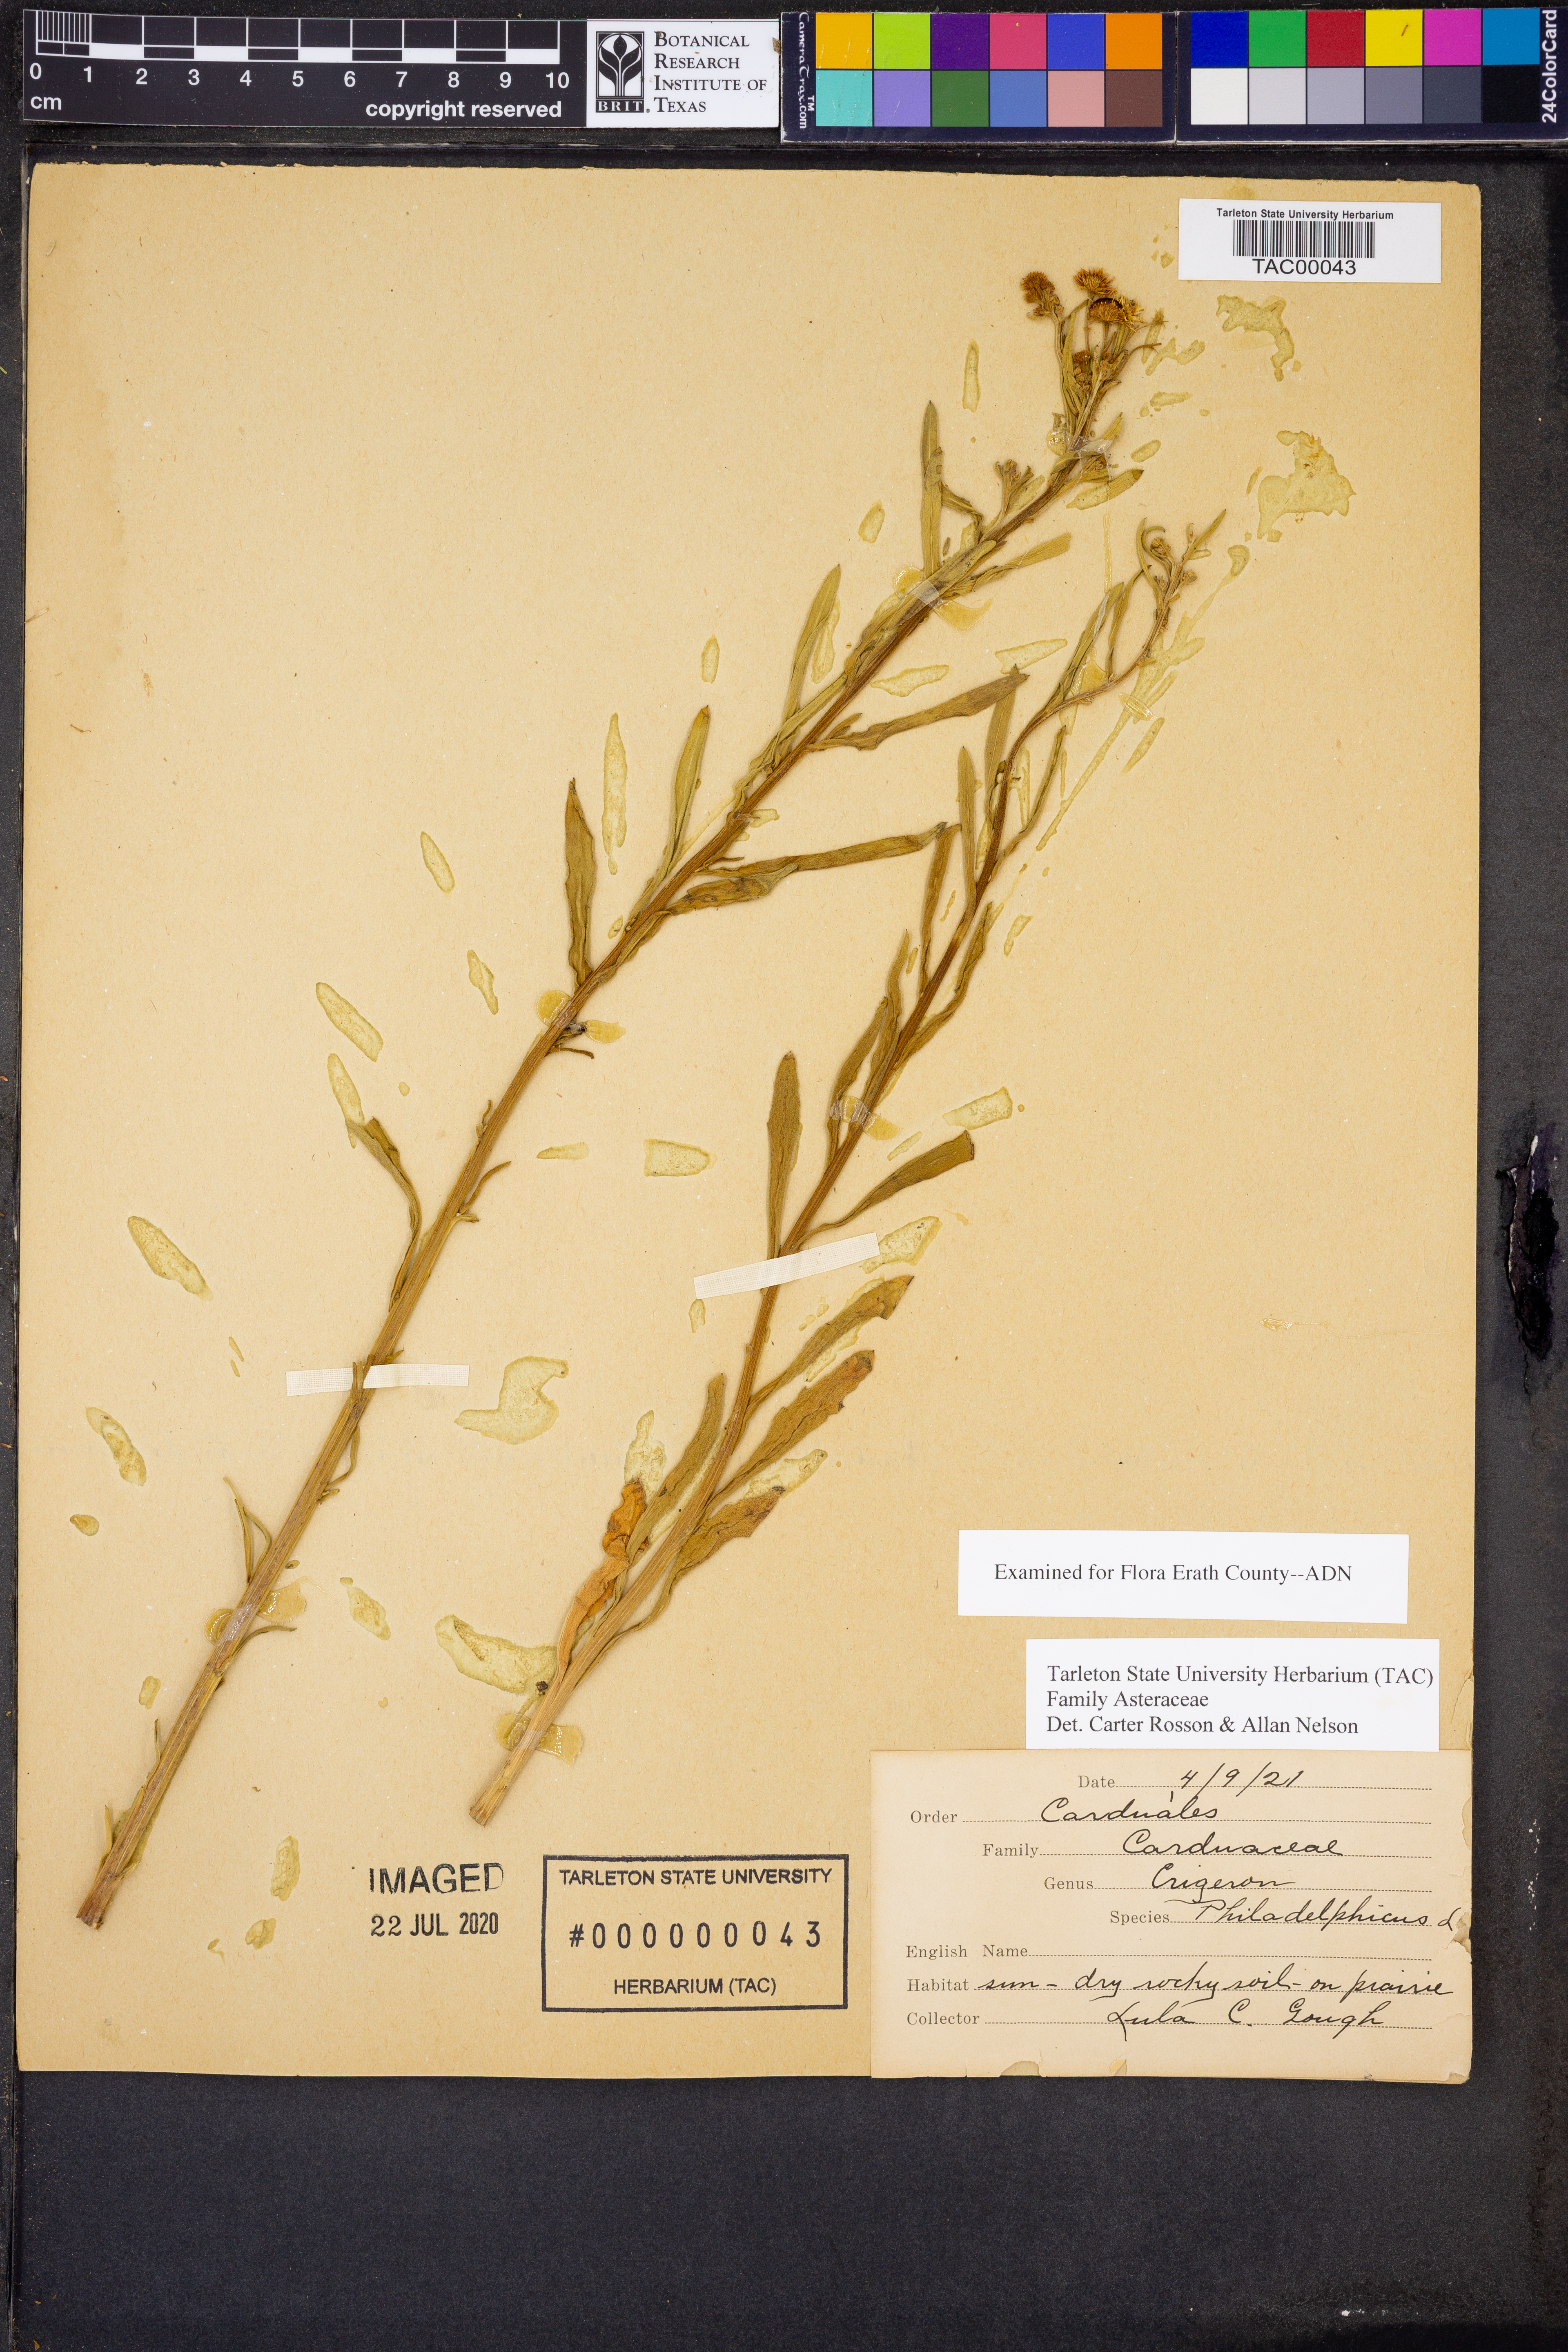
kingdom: Plantae
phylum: Tracheophyta
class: Magnoliopsida
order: Asterales
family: Asteraceae
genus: Erigeron
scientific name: Erigeron philadelphicus
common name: Robin's-plantain
